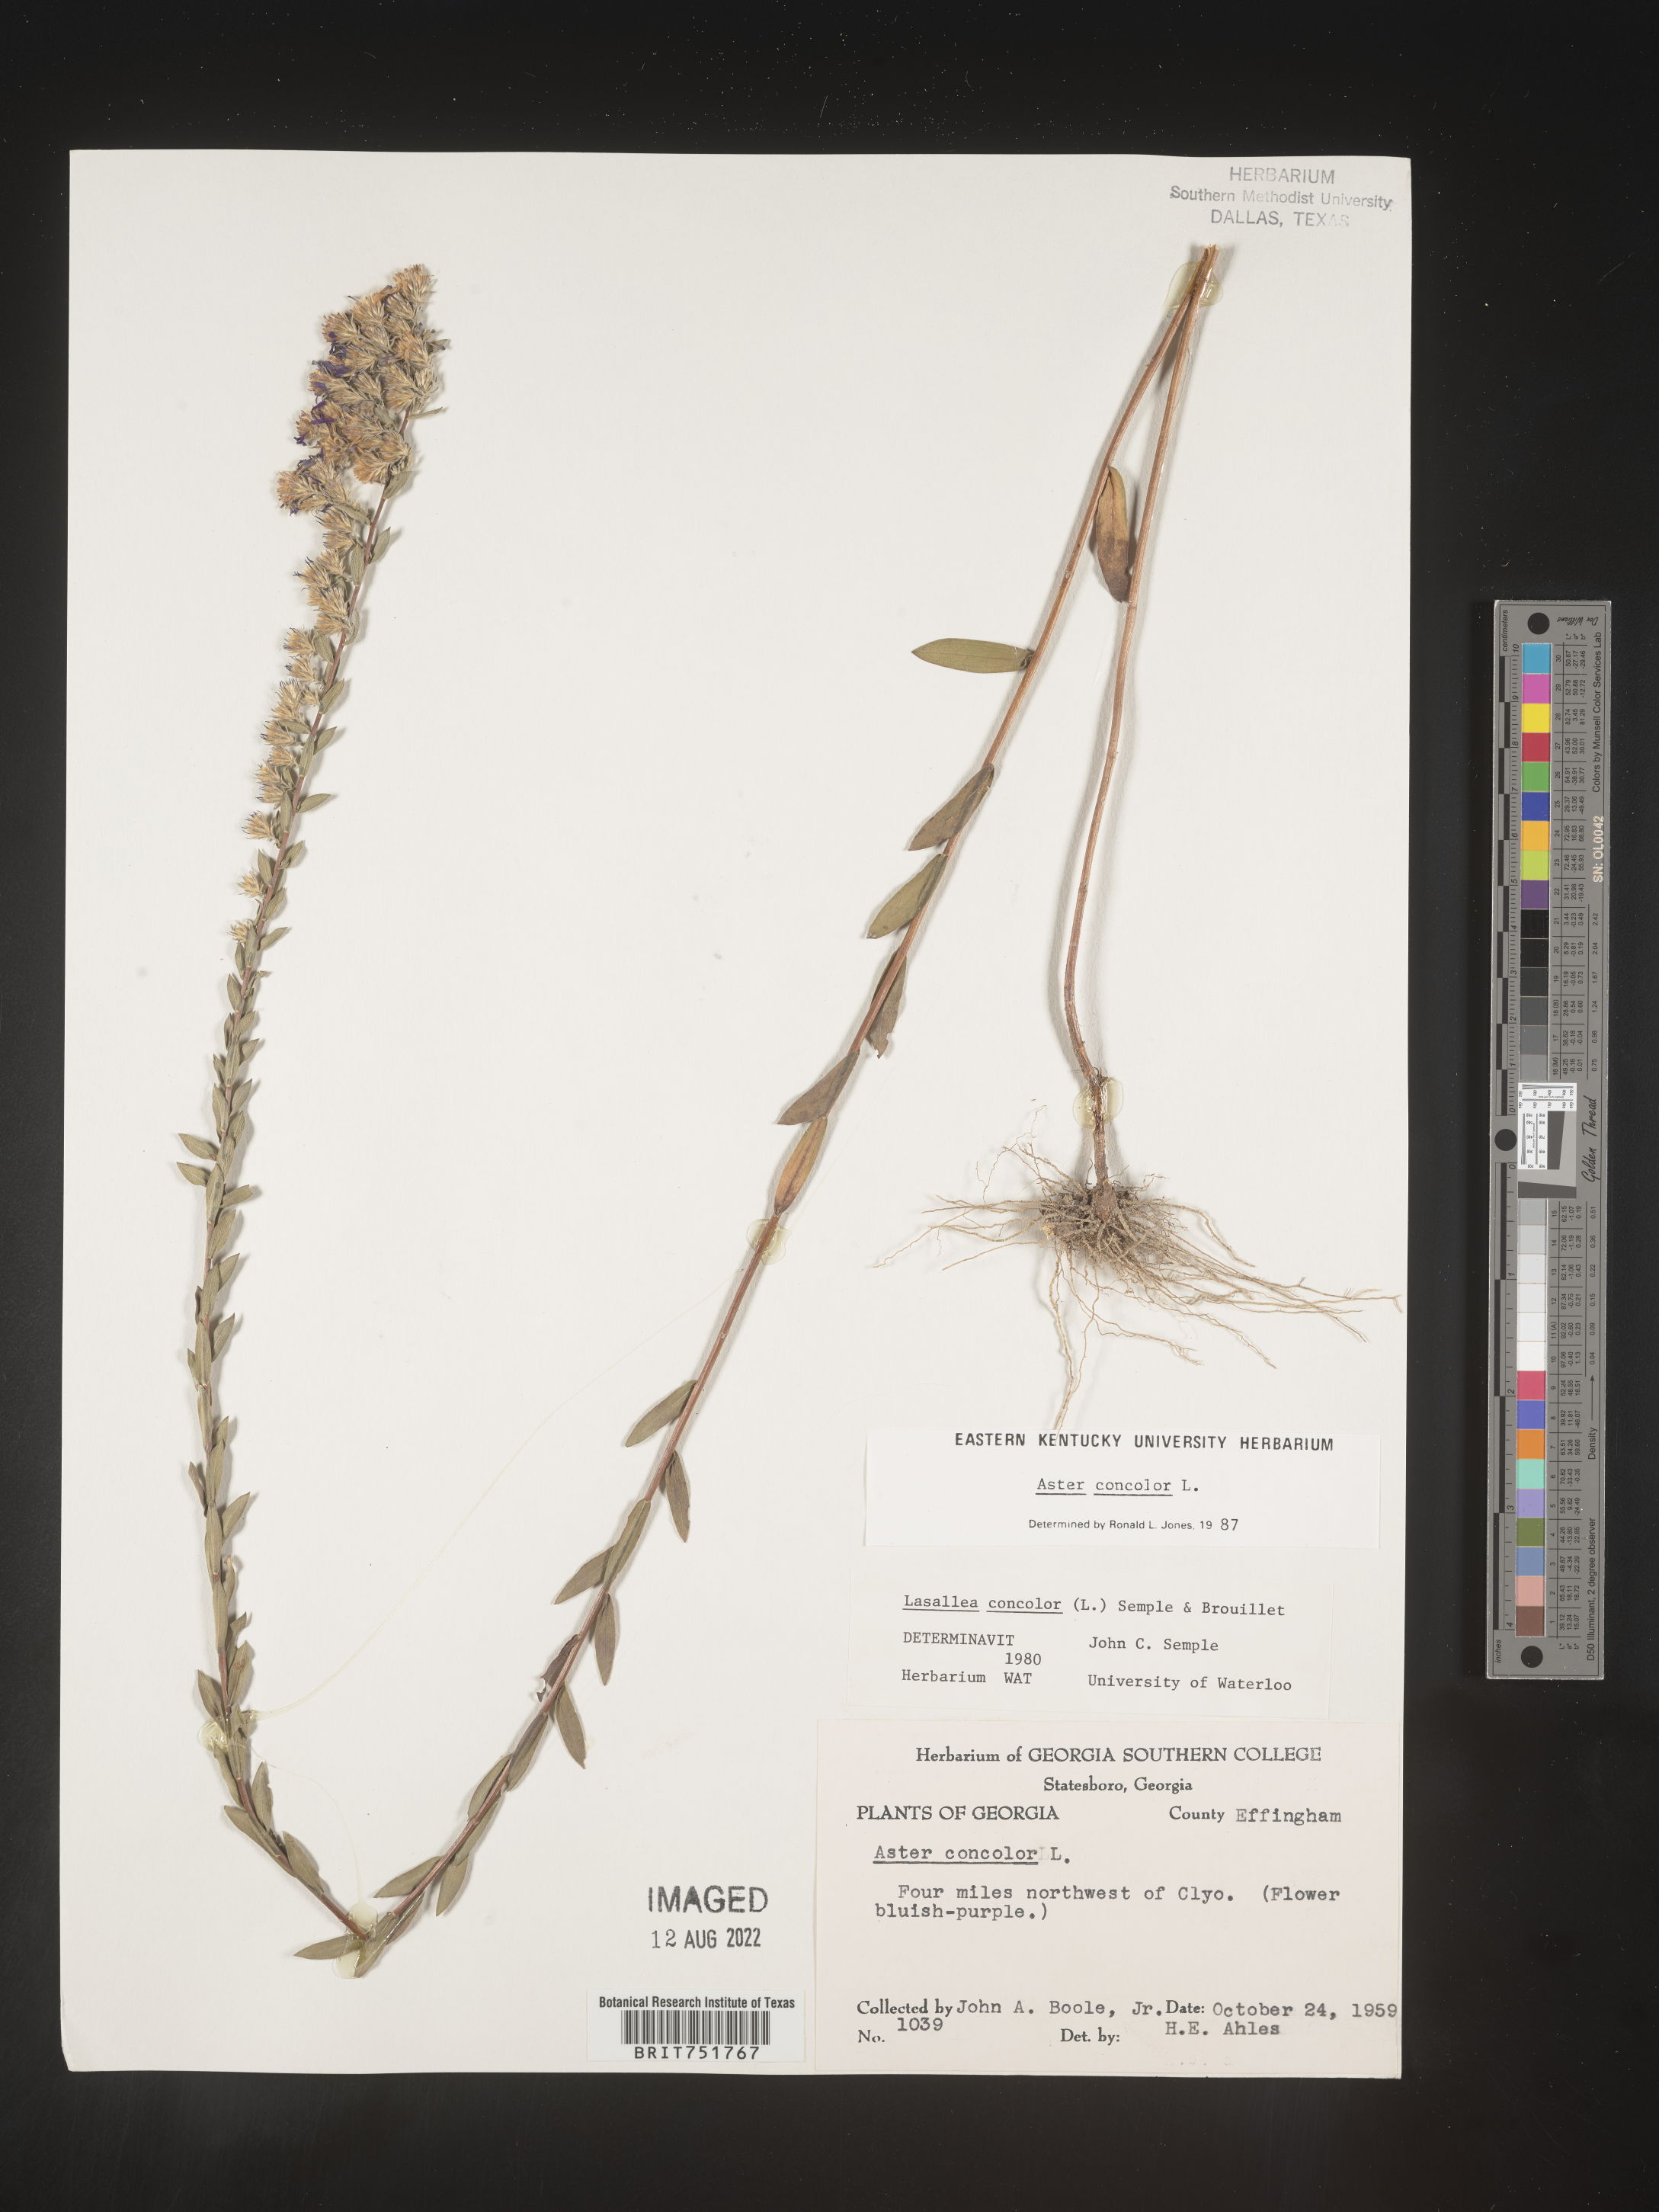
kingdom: Plantae
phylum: Tracheophyta
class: Magnoliopsida
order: Asterales
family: Asteraceae
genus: Symphyotrichum
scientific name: Symphyotrichum concolor
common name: Eastern silver aster
